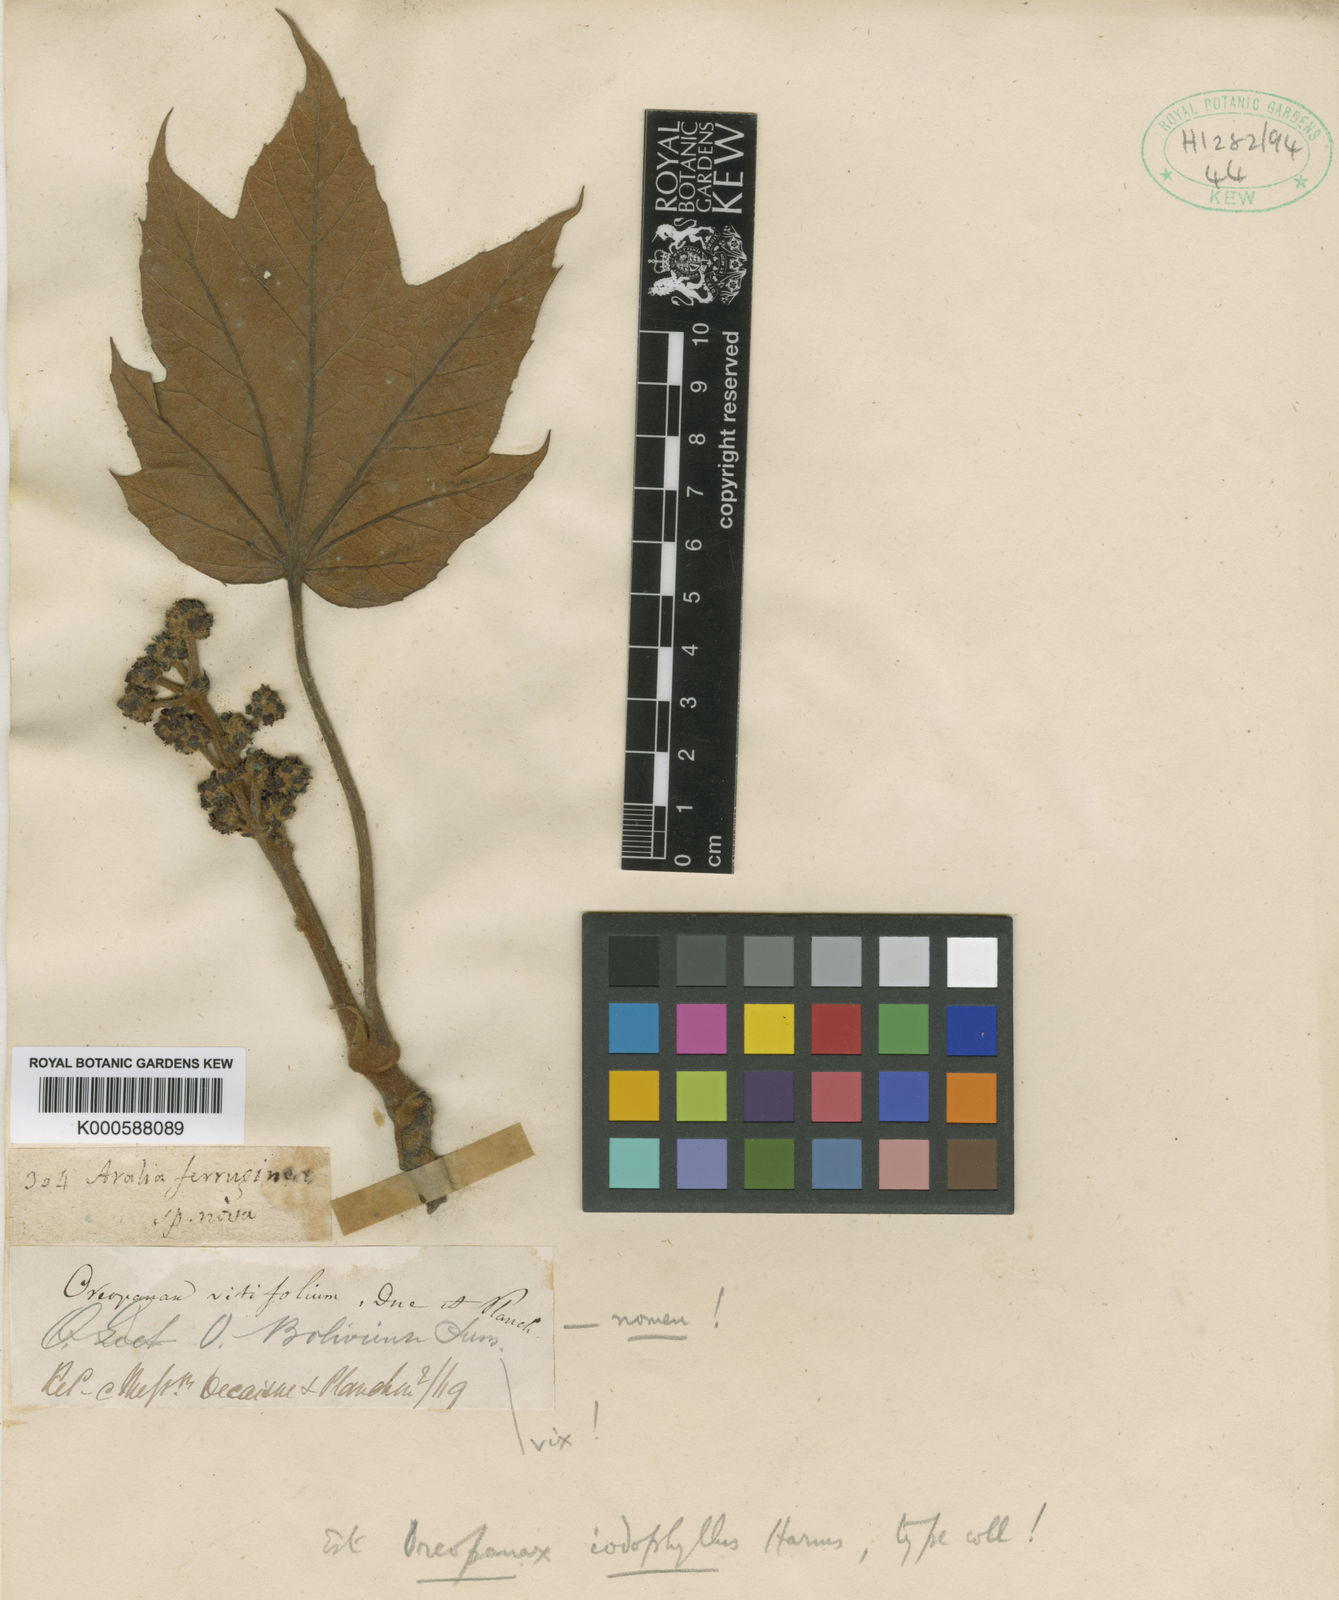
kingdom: Plantae
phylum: Tracheophyta
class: Magnoliopsida
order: Apiales
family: Araliaceae
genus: Oreopanax
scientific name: Oreopanax iodophyllus
